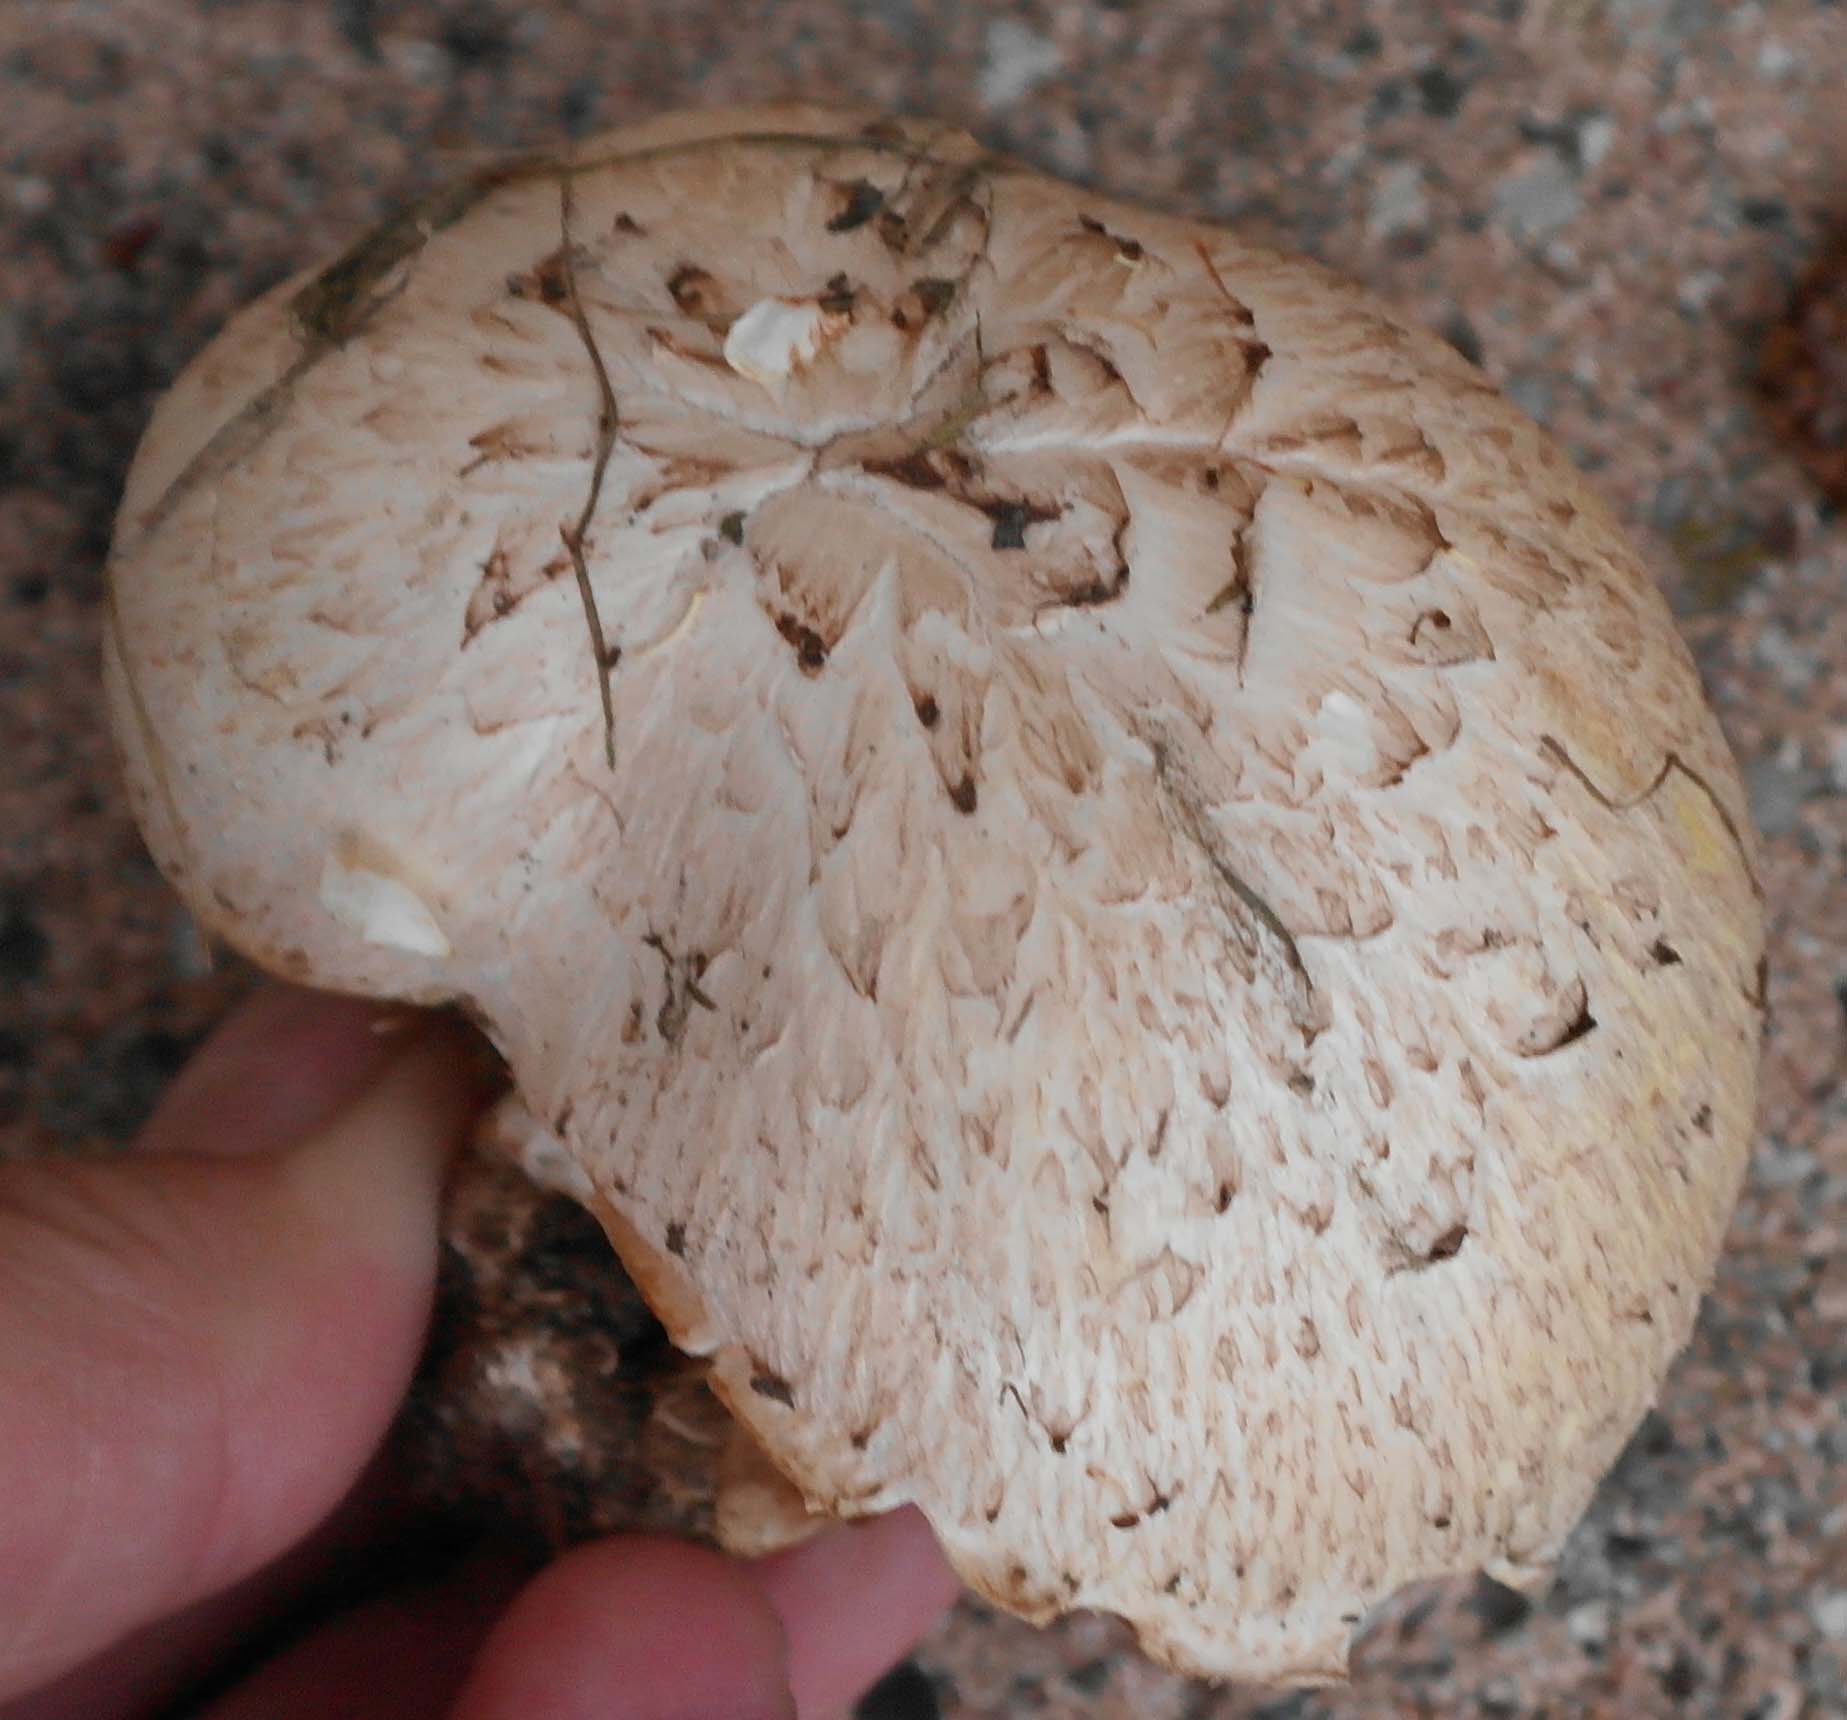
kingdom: Fungi
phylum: Basidiomycota
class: Agaricomycetes
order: Gloeophyllales
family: Gloeophyllaceae
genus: Neolentinus
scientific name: Neolentinus lepideus
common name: skællet sejhat
